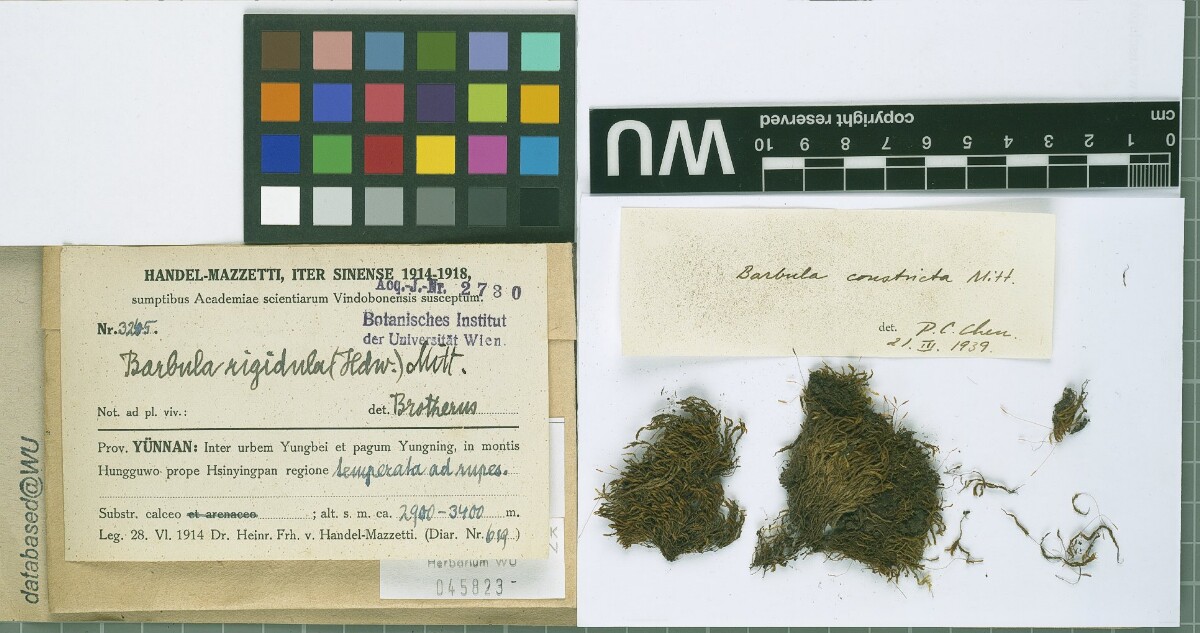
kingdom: Plantae
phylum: Bryophyta
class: Bryopsida
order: Pottiales
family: Pottiaceae
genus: Didymodon
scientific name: Didymodon constrictus
